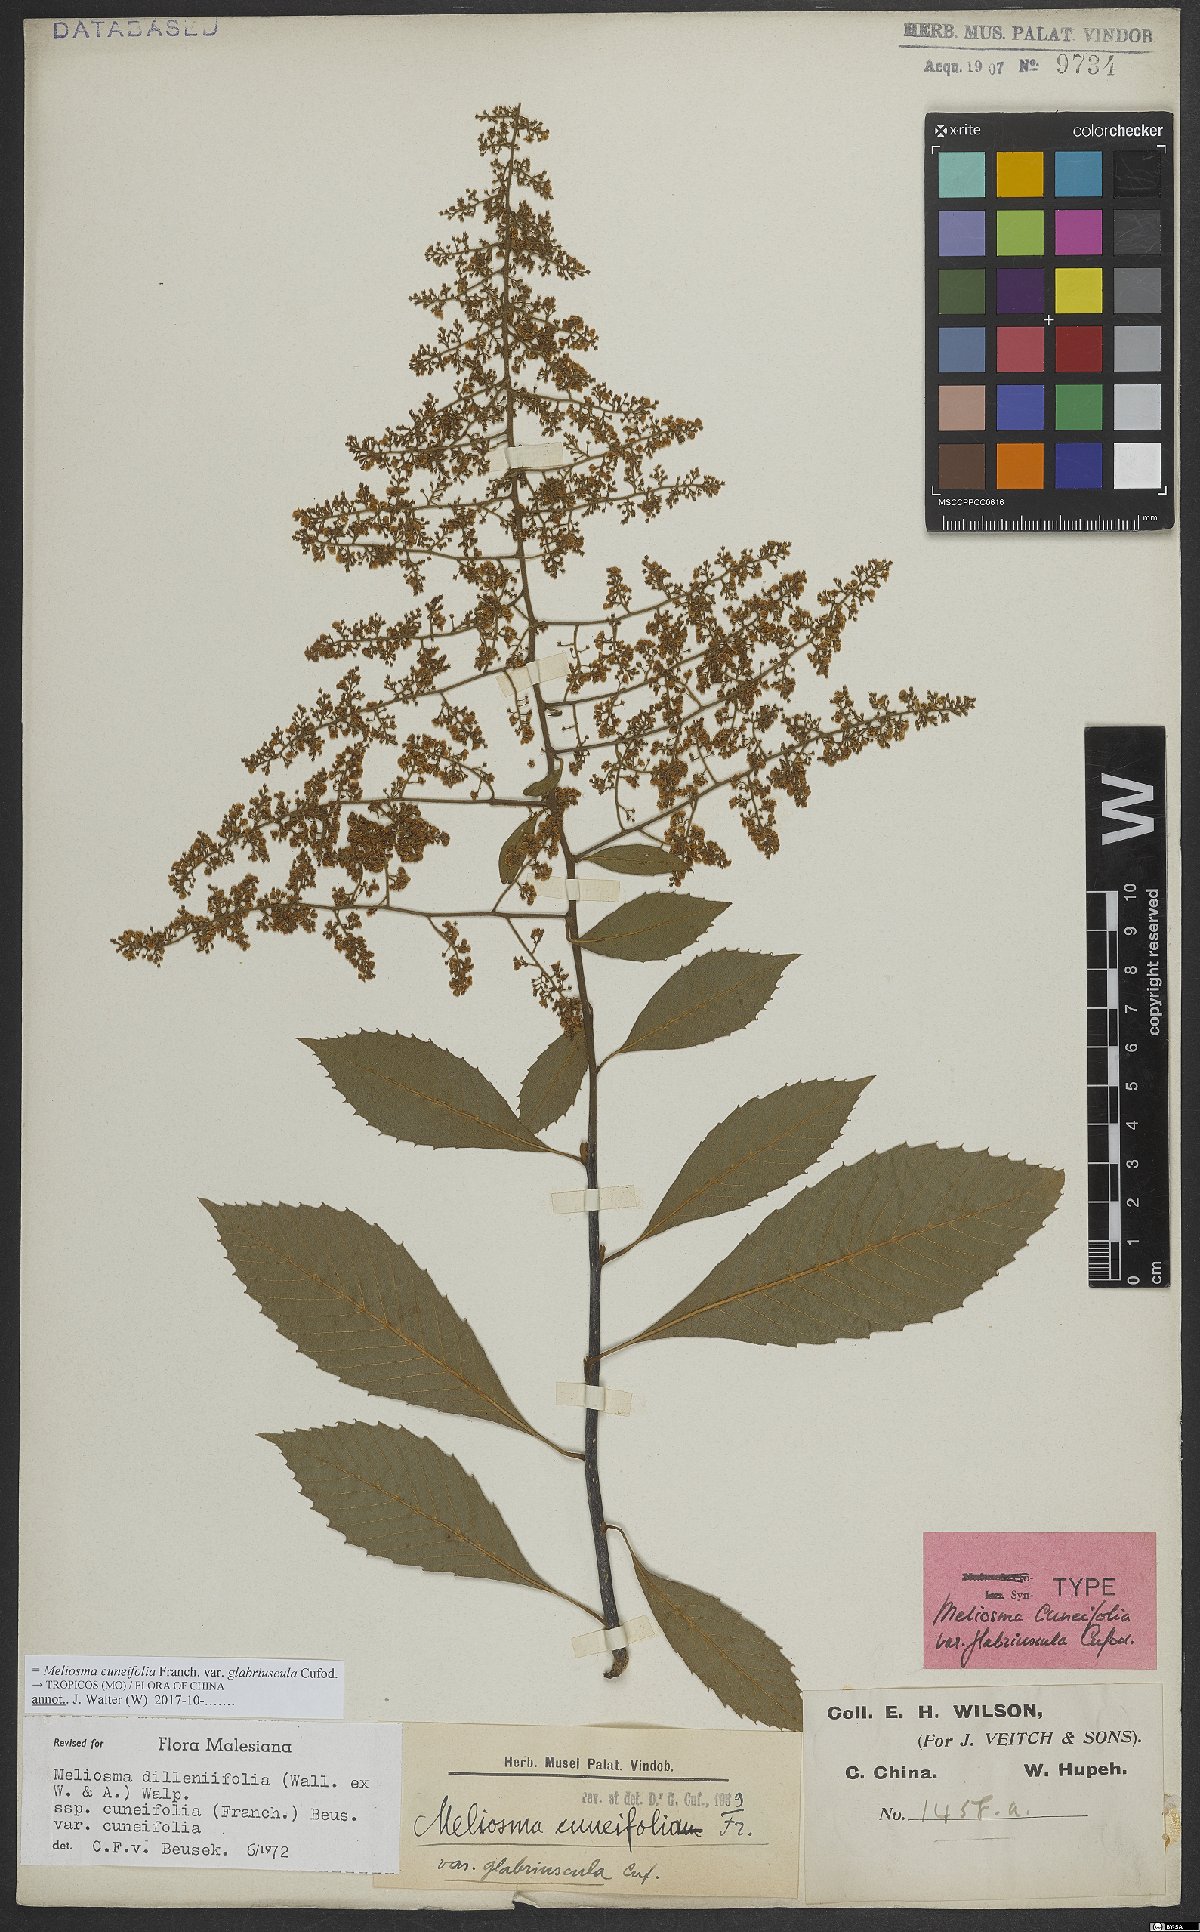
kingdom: Plantae
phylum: Tracheophyta
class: Magnoliopsida
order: Proteales
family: Sabiaceae
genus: Meliosma
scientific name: Meliosma cuneifolia
